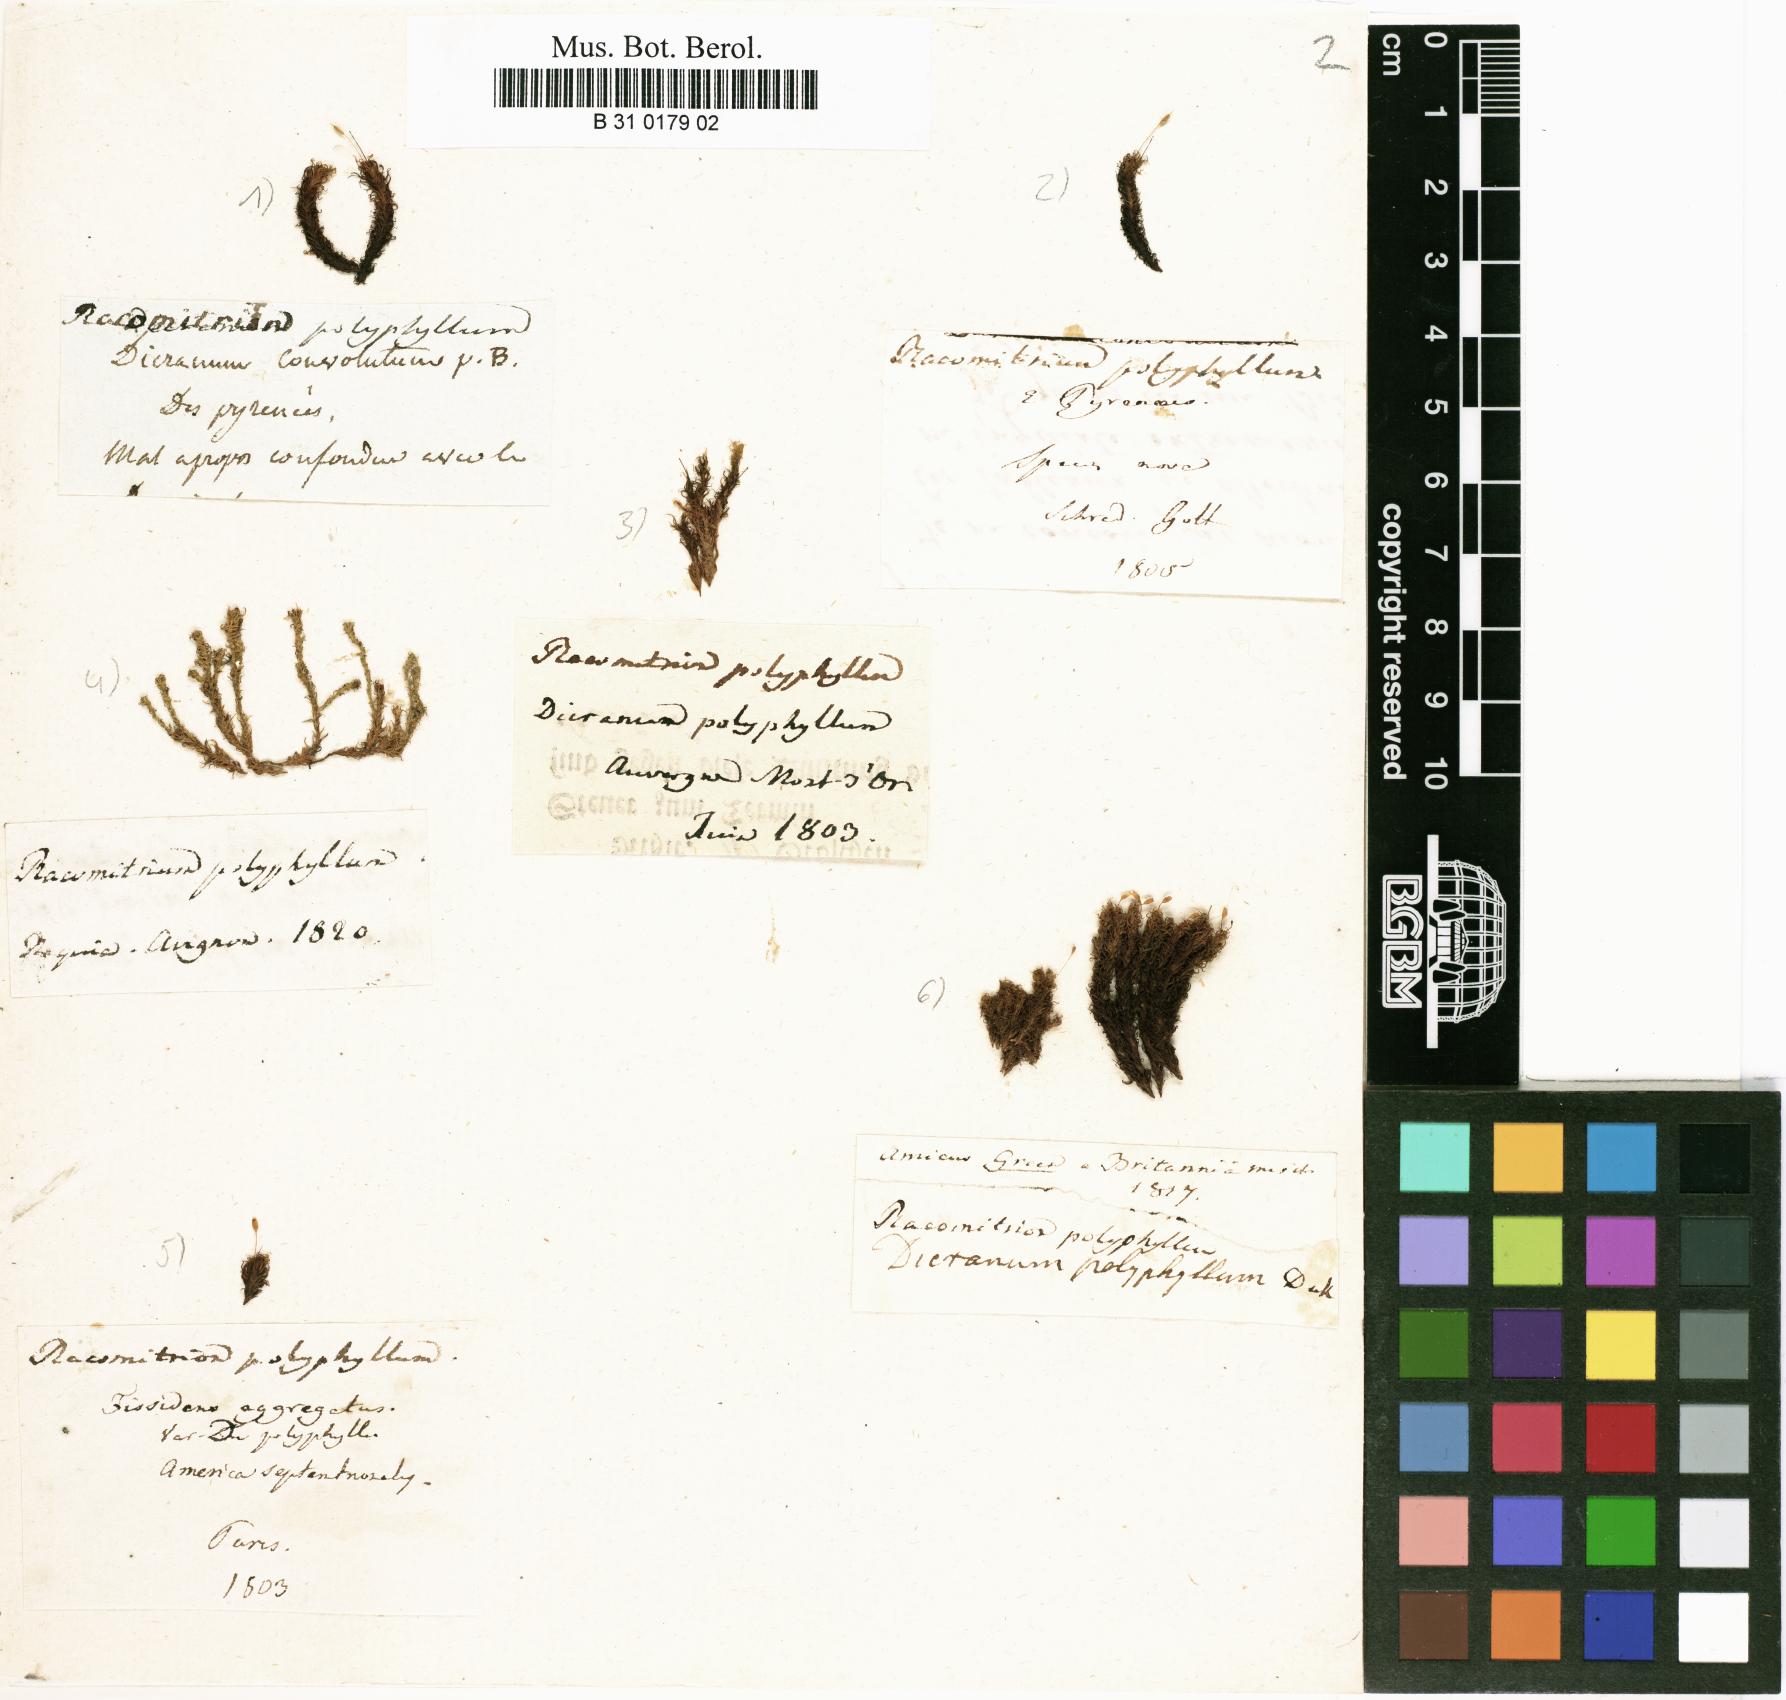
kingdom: Plantae
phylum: Bryophyta
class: Bryopsida
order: Grimmiales
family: Ptychomitriaceae
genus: Ptychomitrium
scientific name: Ptychomitrium polyphyllum
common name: Greater pincushion
